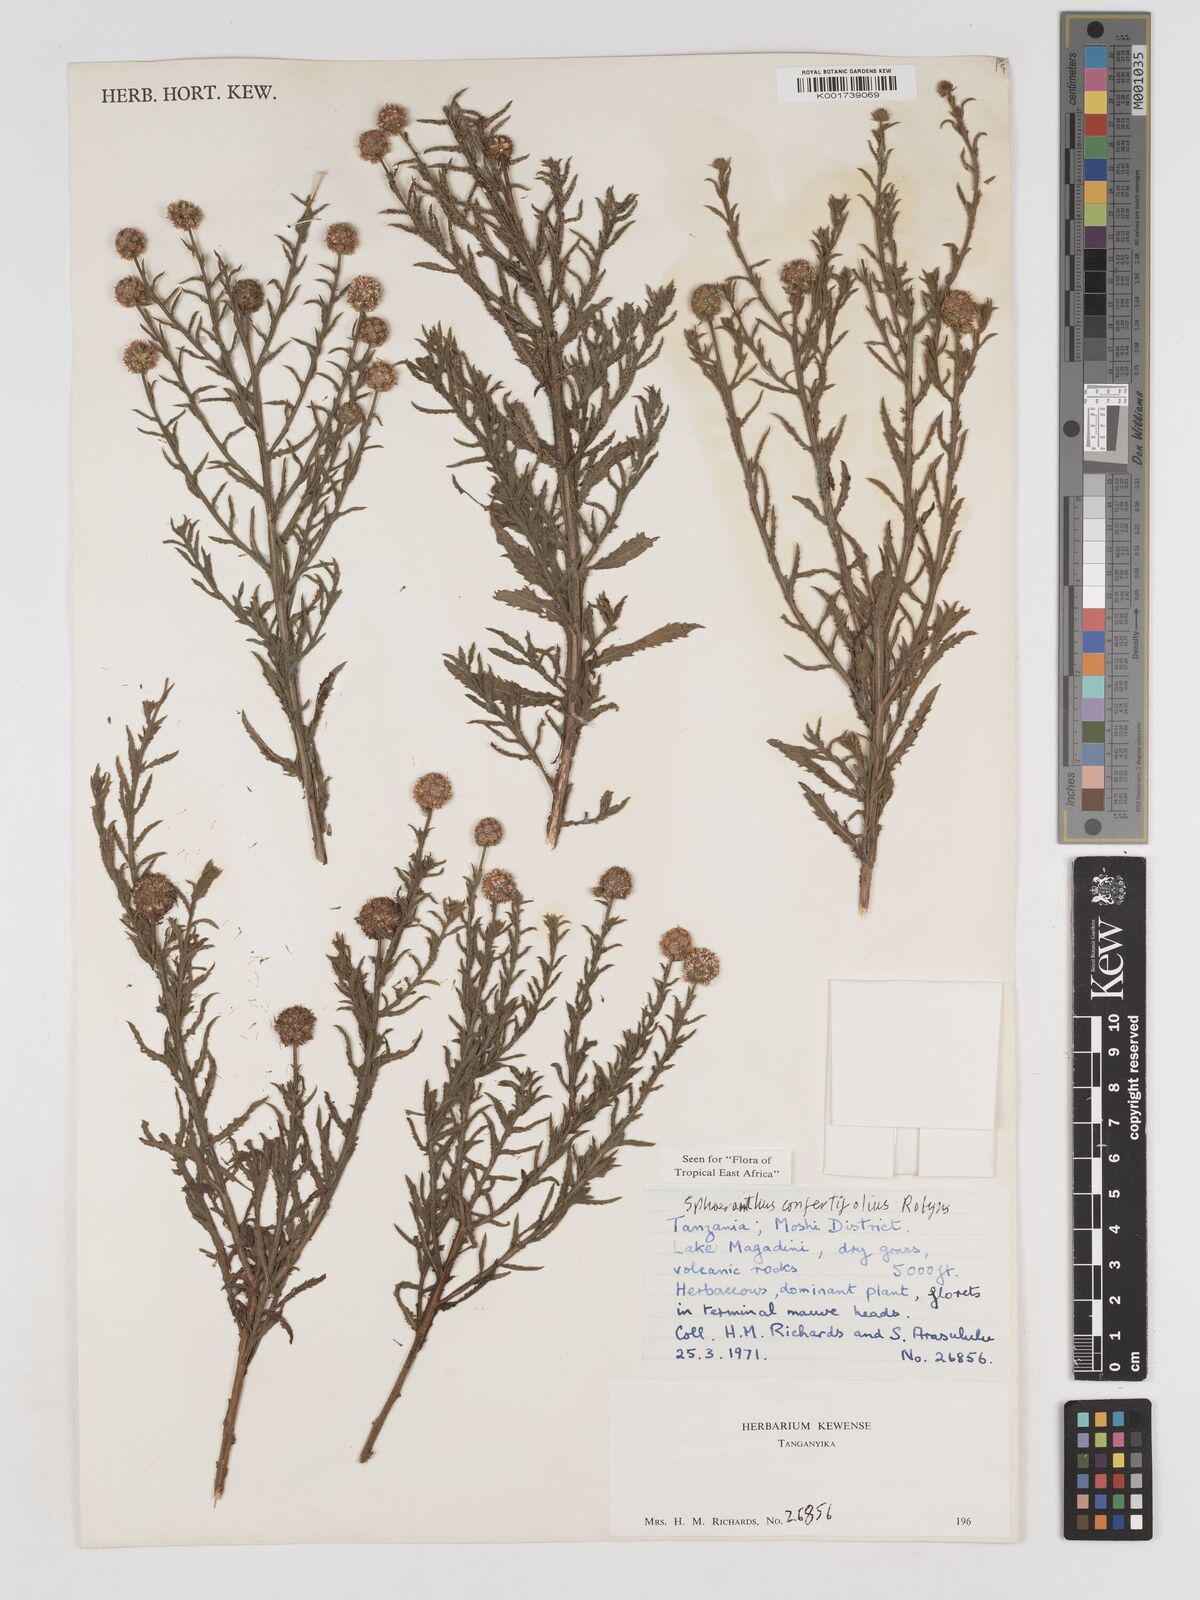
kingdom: Plantae
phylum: Tracheophyta
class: Magnoliopsida
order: Asterales
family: Asteraceae
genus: Sphaeranthus
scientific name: Sphaeranthus confertifolius
